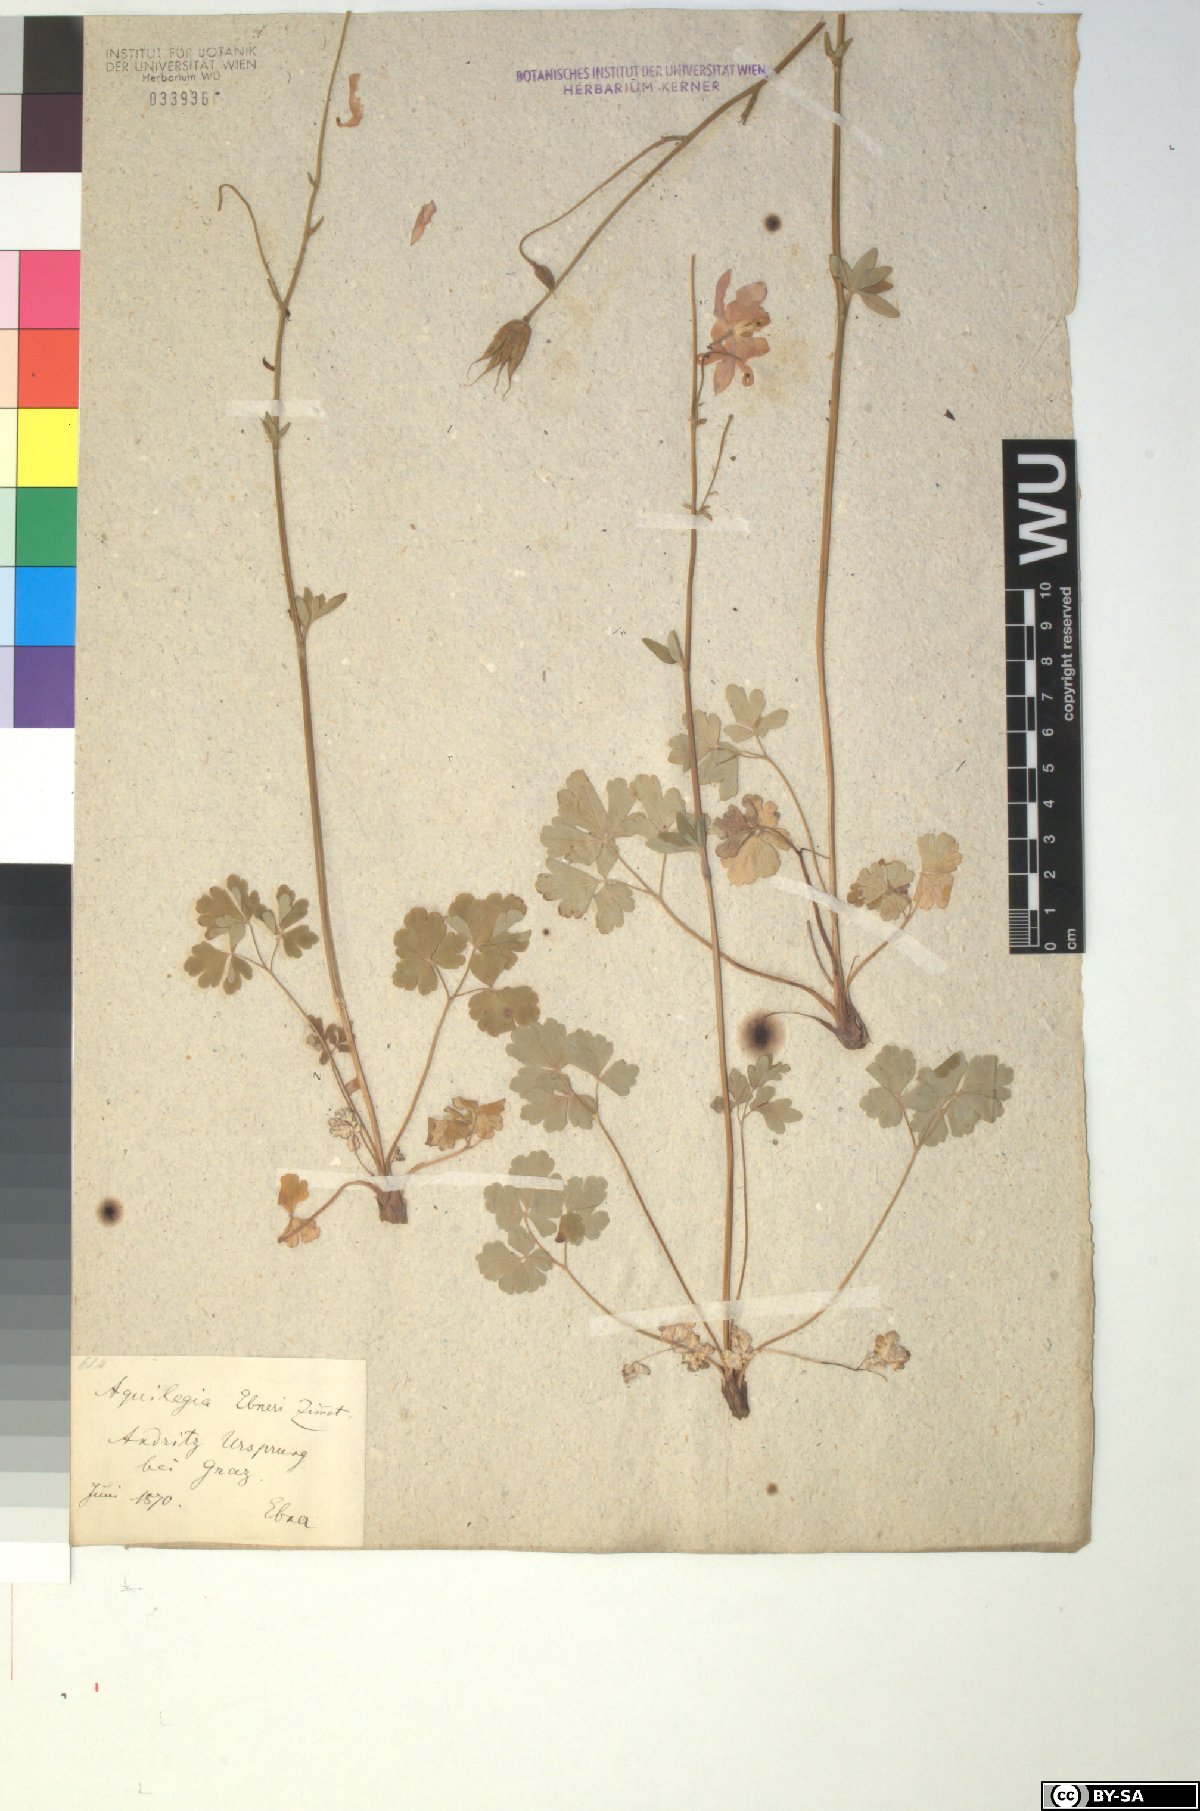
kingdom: Plantae
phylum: Tracheophyta
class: Magnoliopsida
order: Ranunculales
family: Ranunculaceae
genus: Aquilegia
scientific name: Aquilegia vulgaris
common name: Columbine
